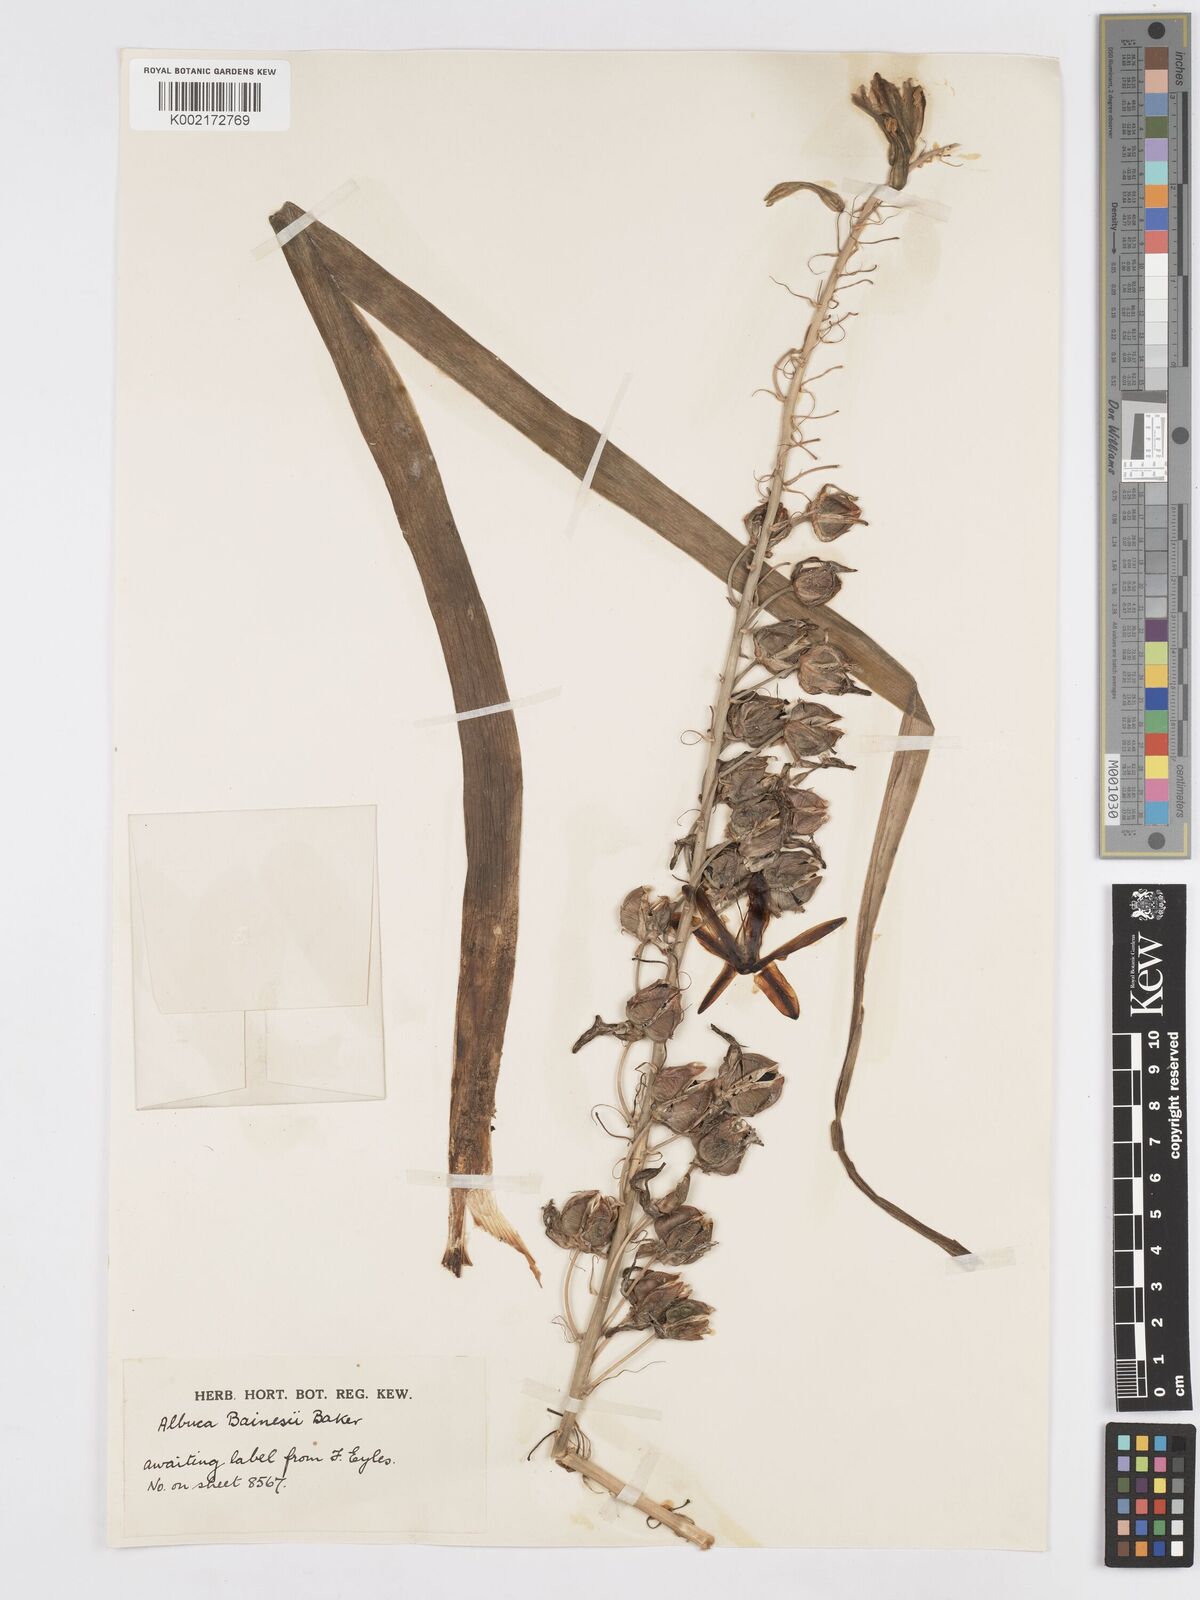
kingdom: Plantae
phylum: Tracheophyta
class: Liliopsida
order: Asparagales
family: Asparagaceae
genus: Albuca
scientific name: Albuca abyssinica
